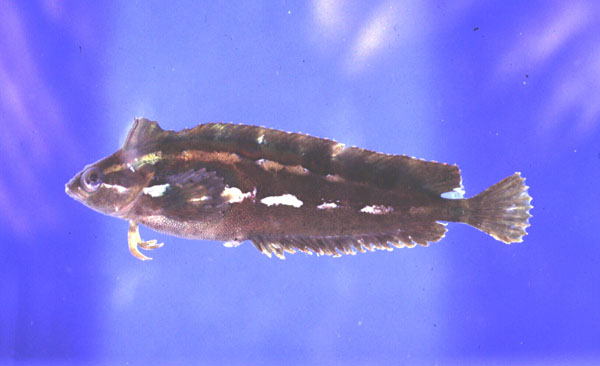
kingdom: Animalia
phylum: Chordata
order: Perciformes
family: Clinidae
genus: Pavoclinus
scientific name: Pavoclinus graminis
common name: Grass klipfish
